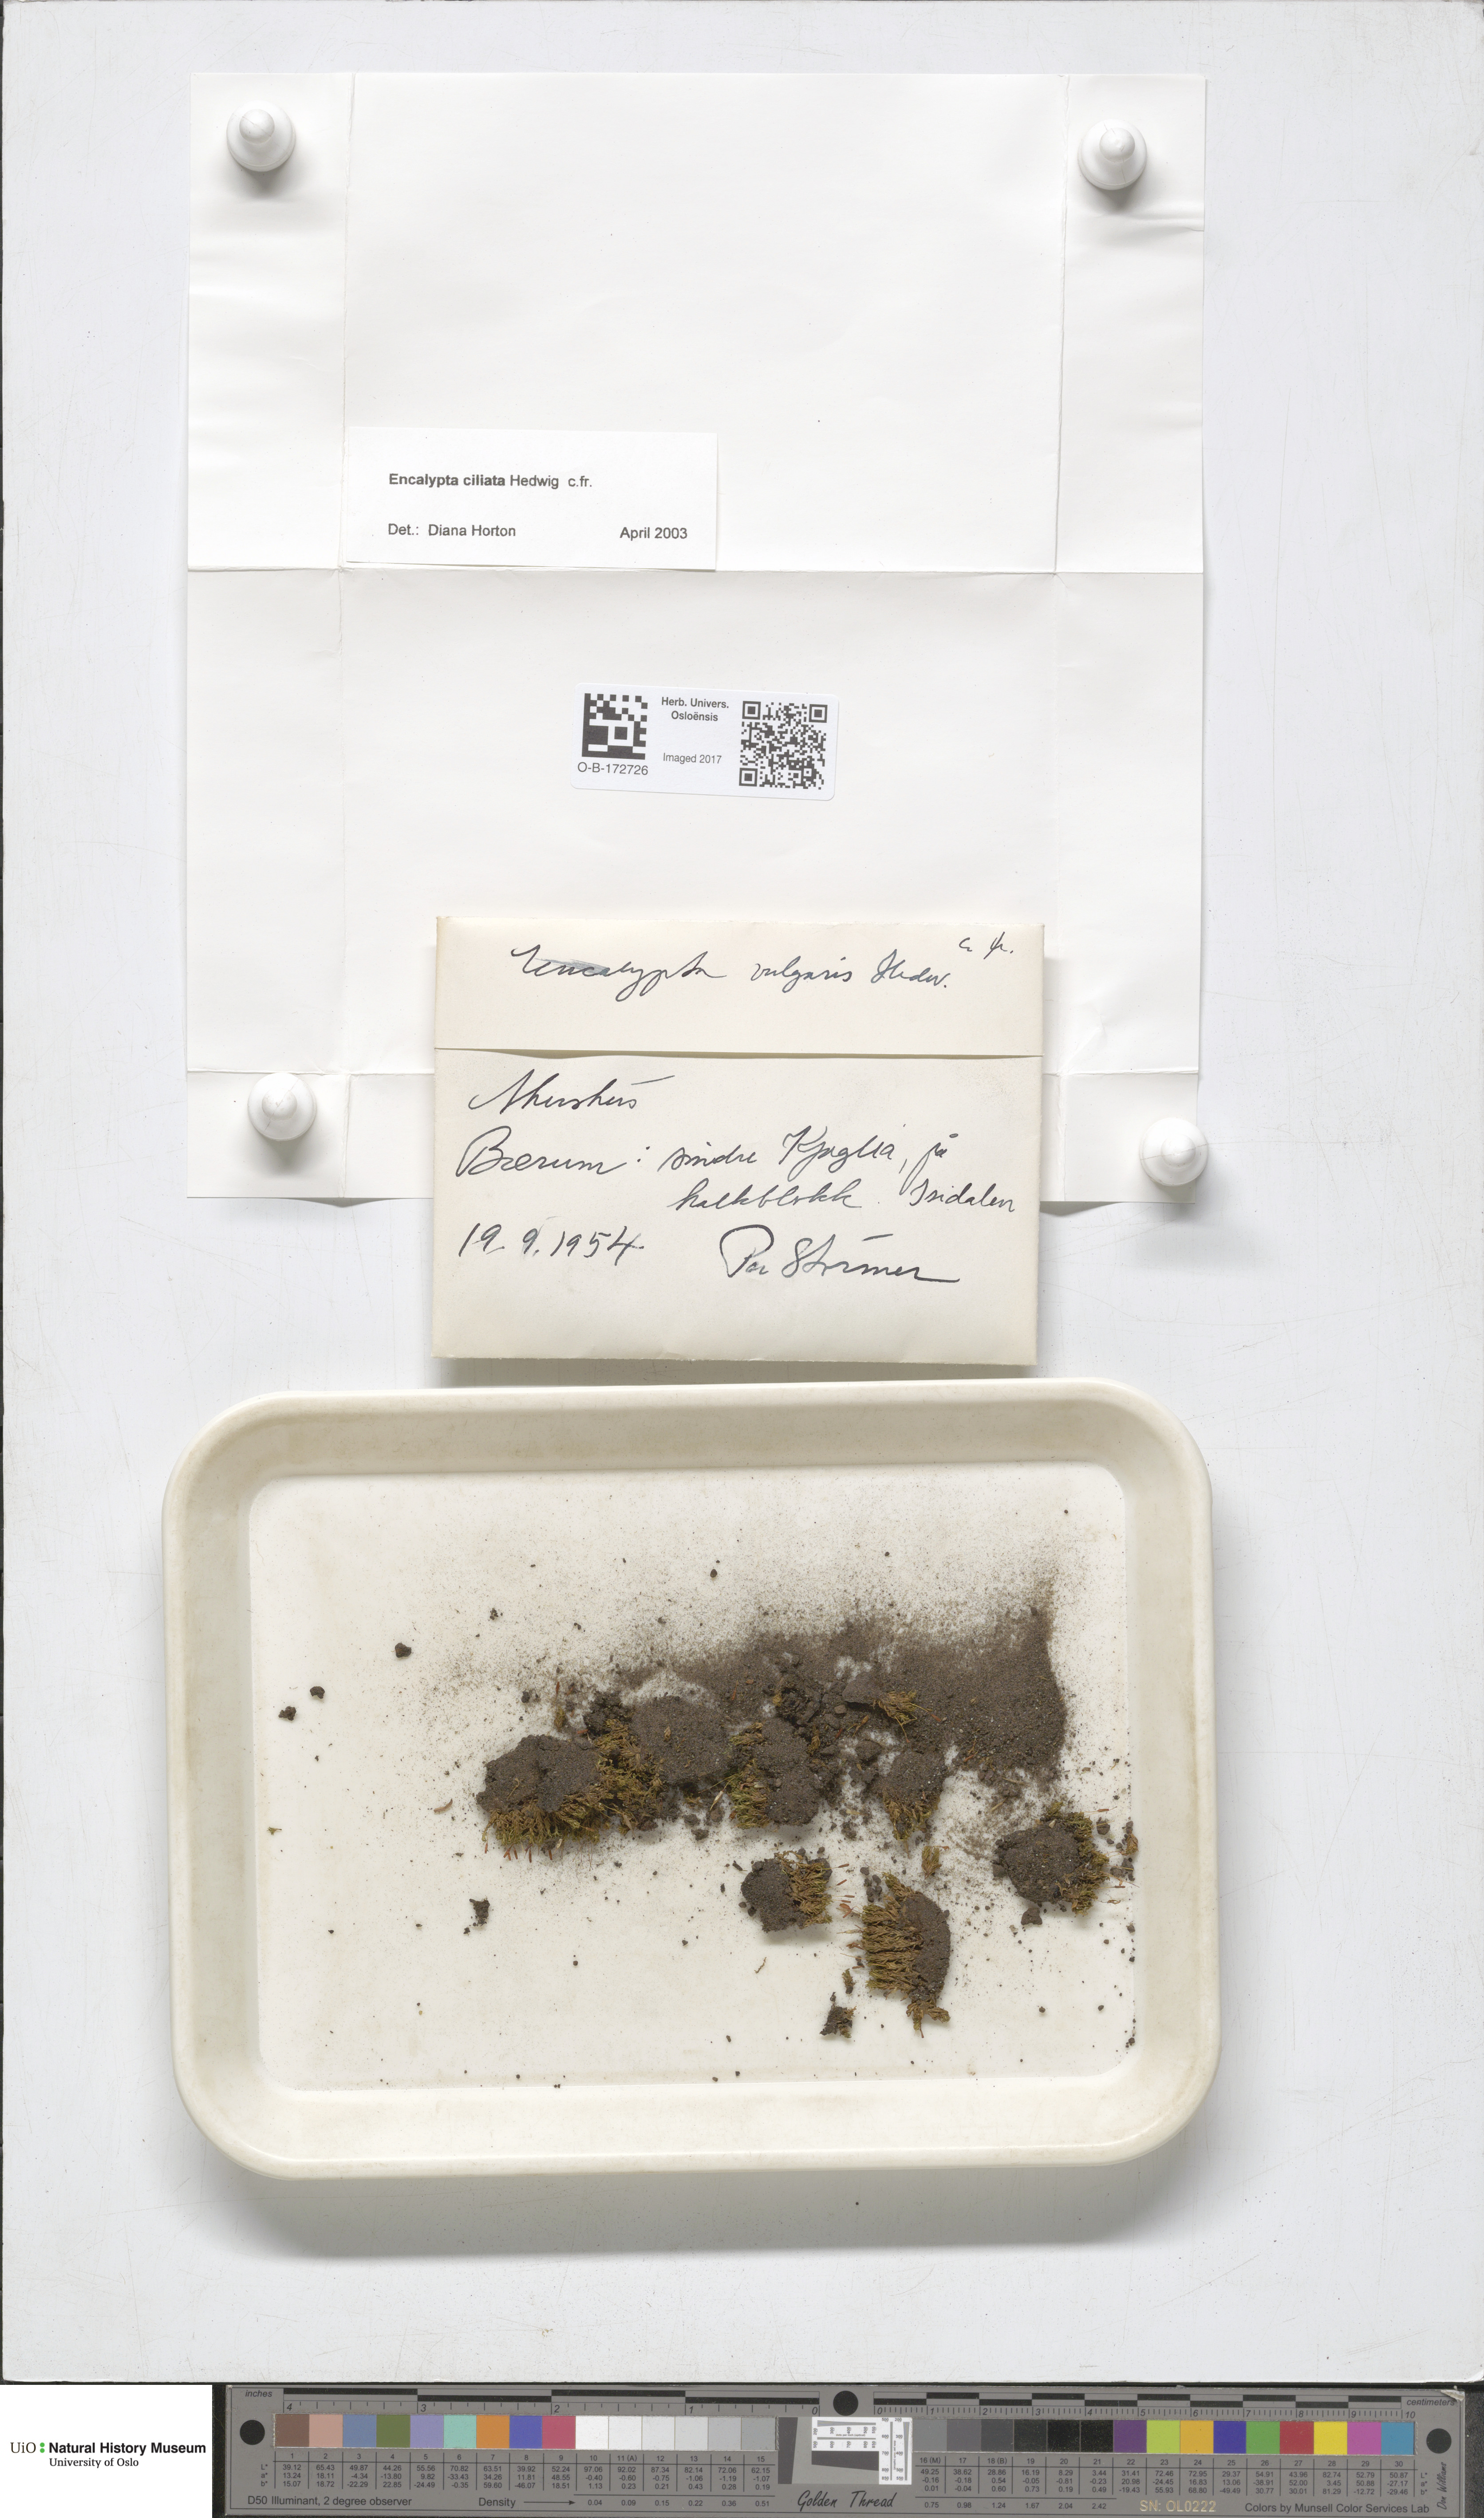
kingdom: Plantae
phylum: Bryophyta
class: Bryopsida
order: Encalyptales
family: Encalyptaceae
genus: Encalypta
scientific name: Encalypta ciliata
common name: Fringed extinguisher-moss
